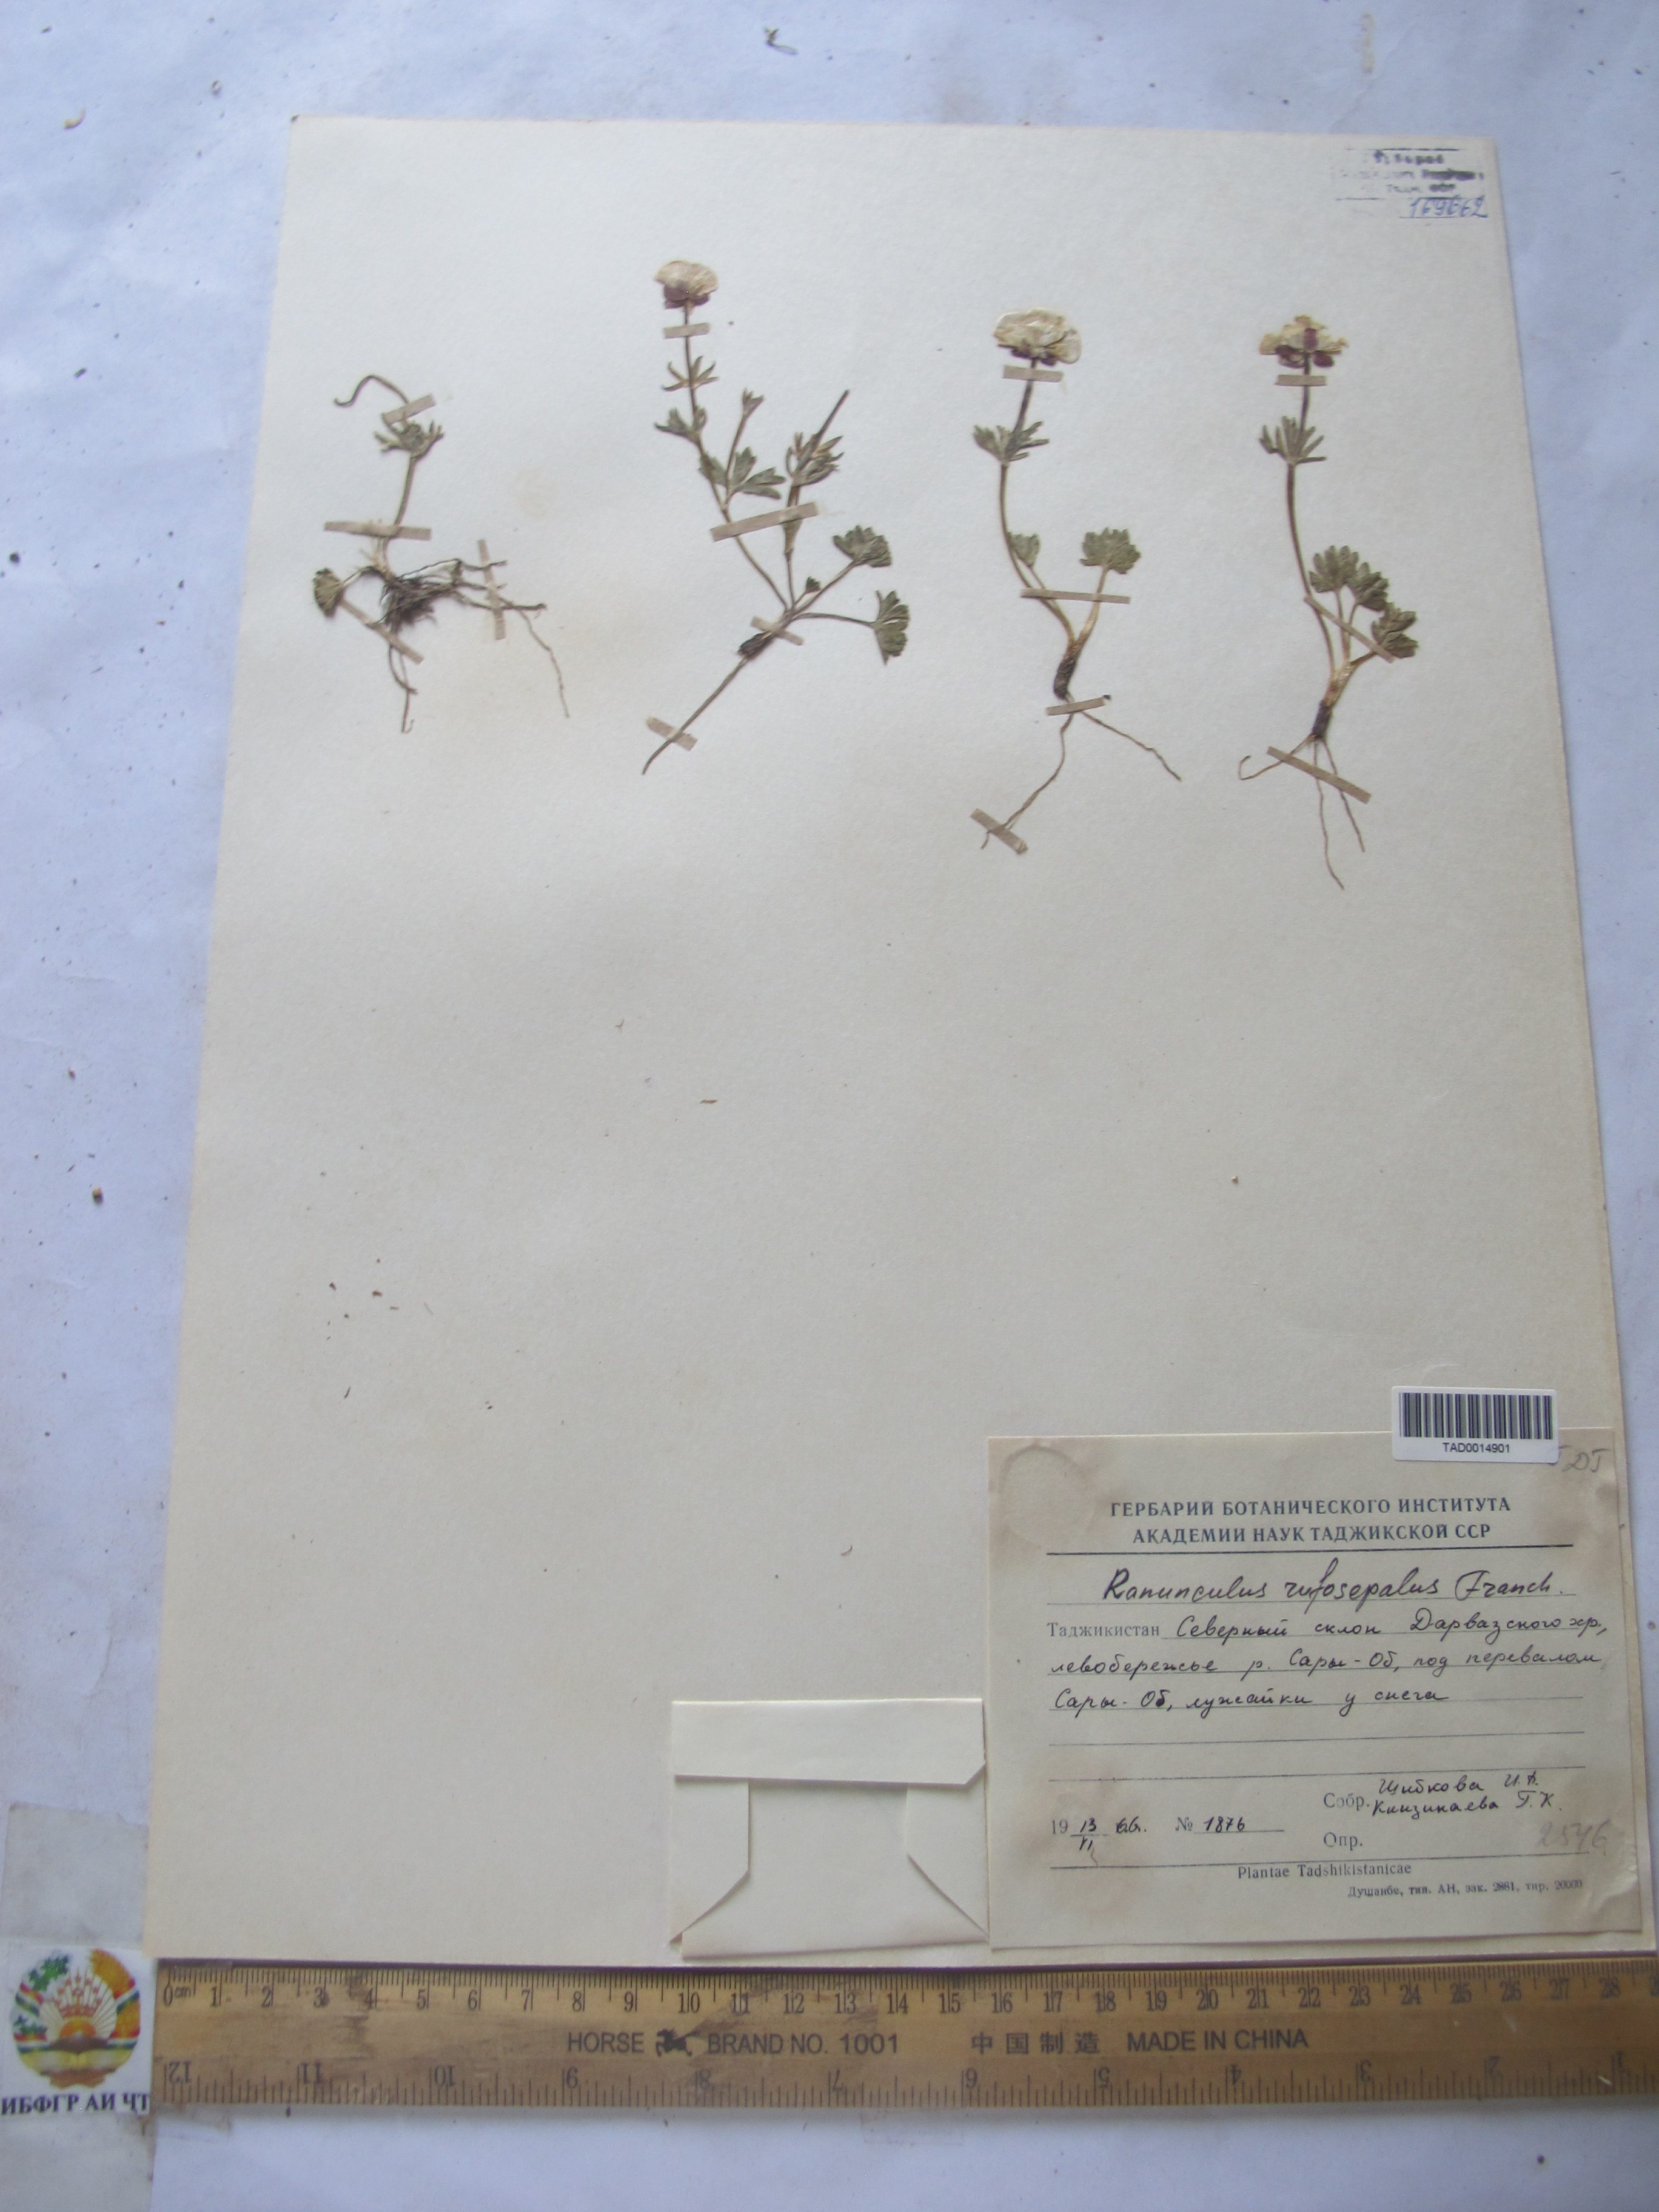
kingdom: Plantae
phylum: Tracheophyta
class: Magnoliopsida
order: Ranunculales
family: Ranunculaceae
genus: Ranunculus
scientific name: Ranunculus rufosepalus
